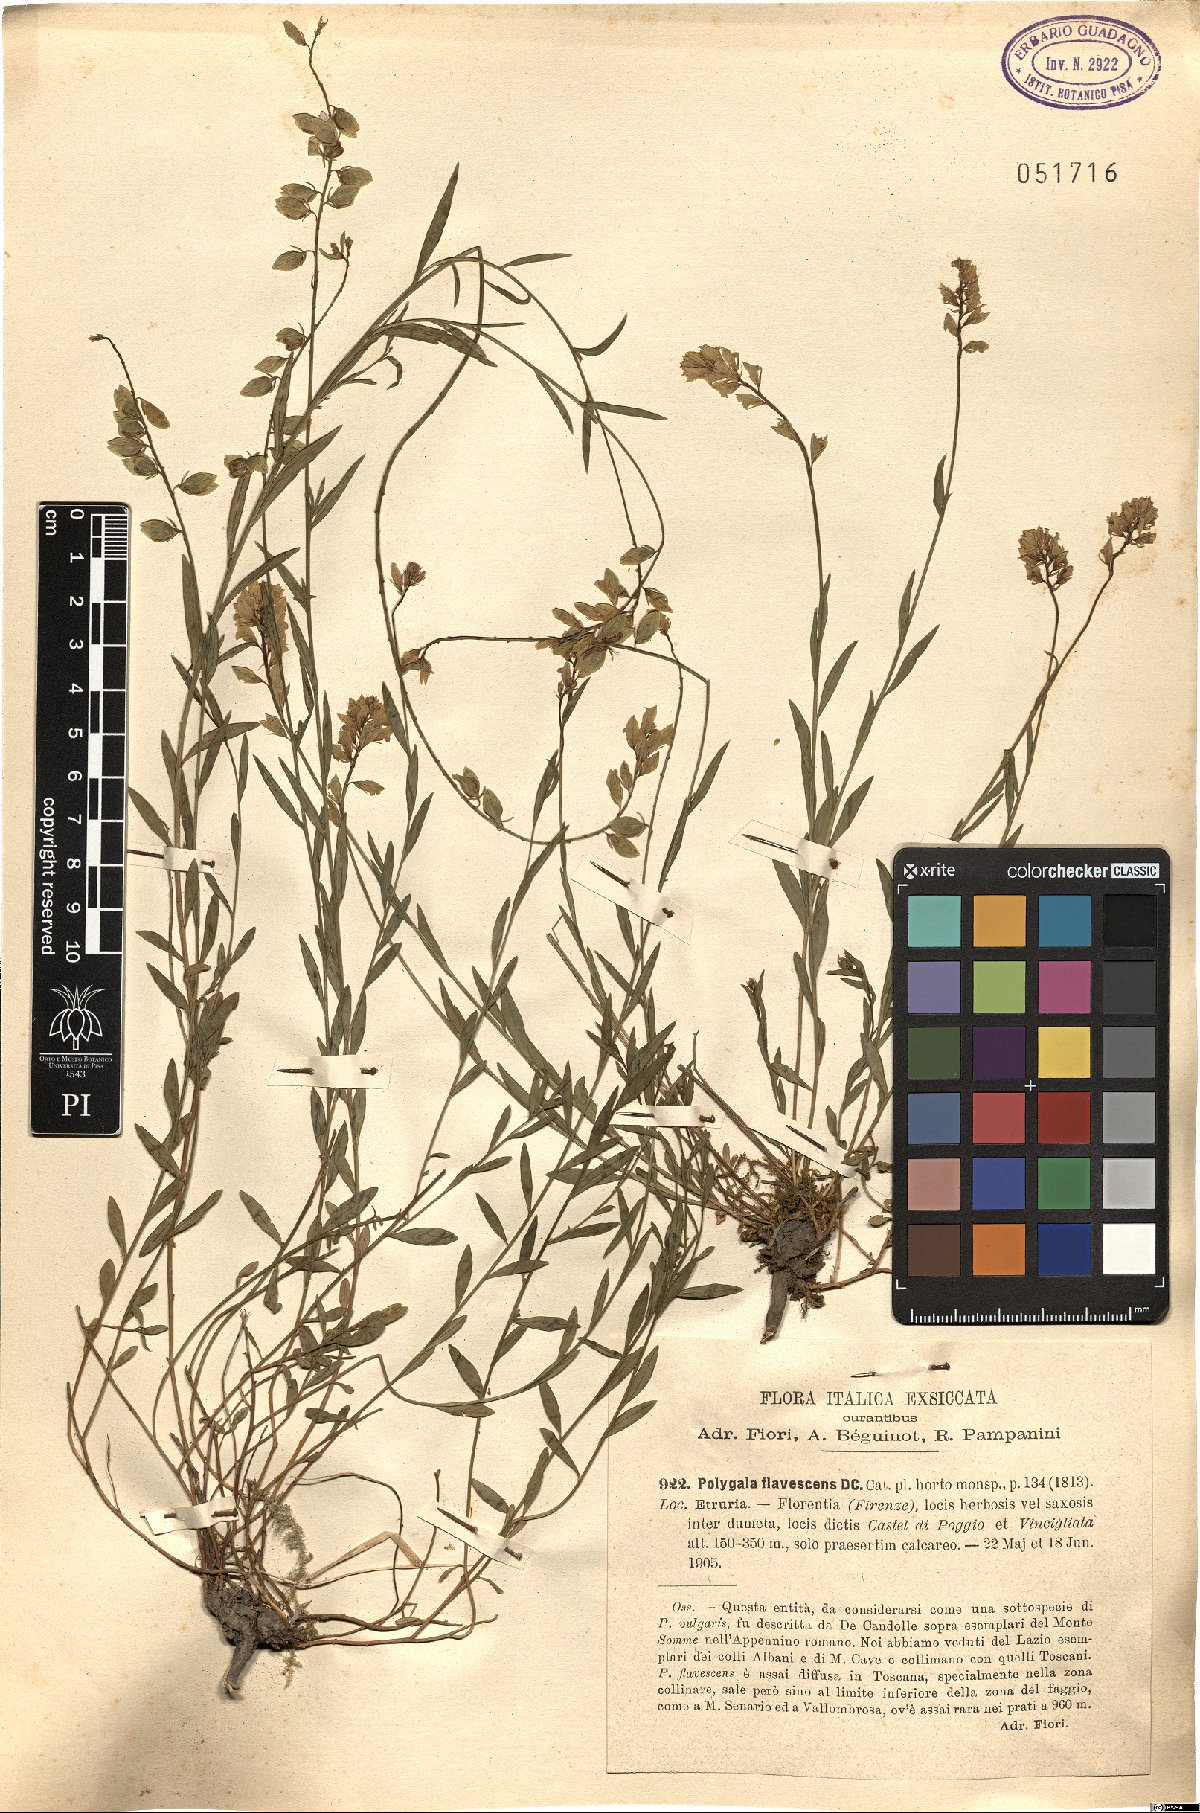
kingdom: Plantae
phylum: Tracheophyta
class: Magnoliopsida
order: Fabales
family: Polygalaceae
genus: Polygala
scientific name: Polygala flavescens
